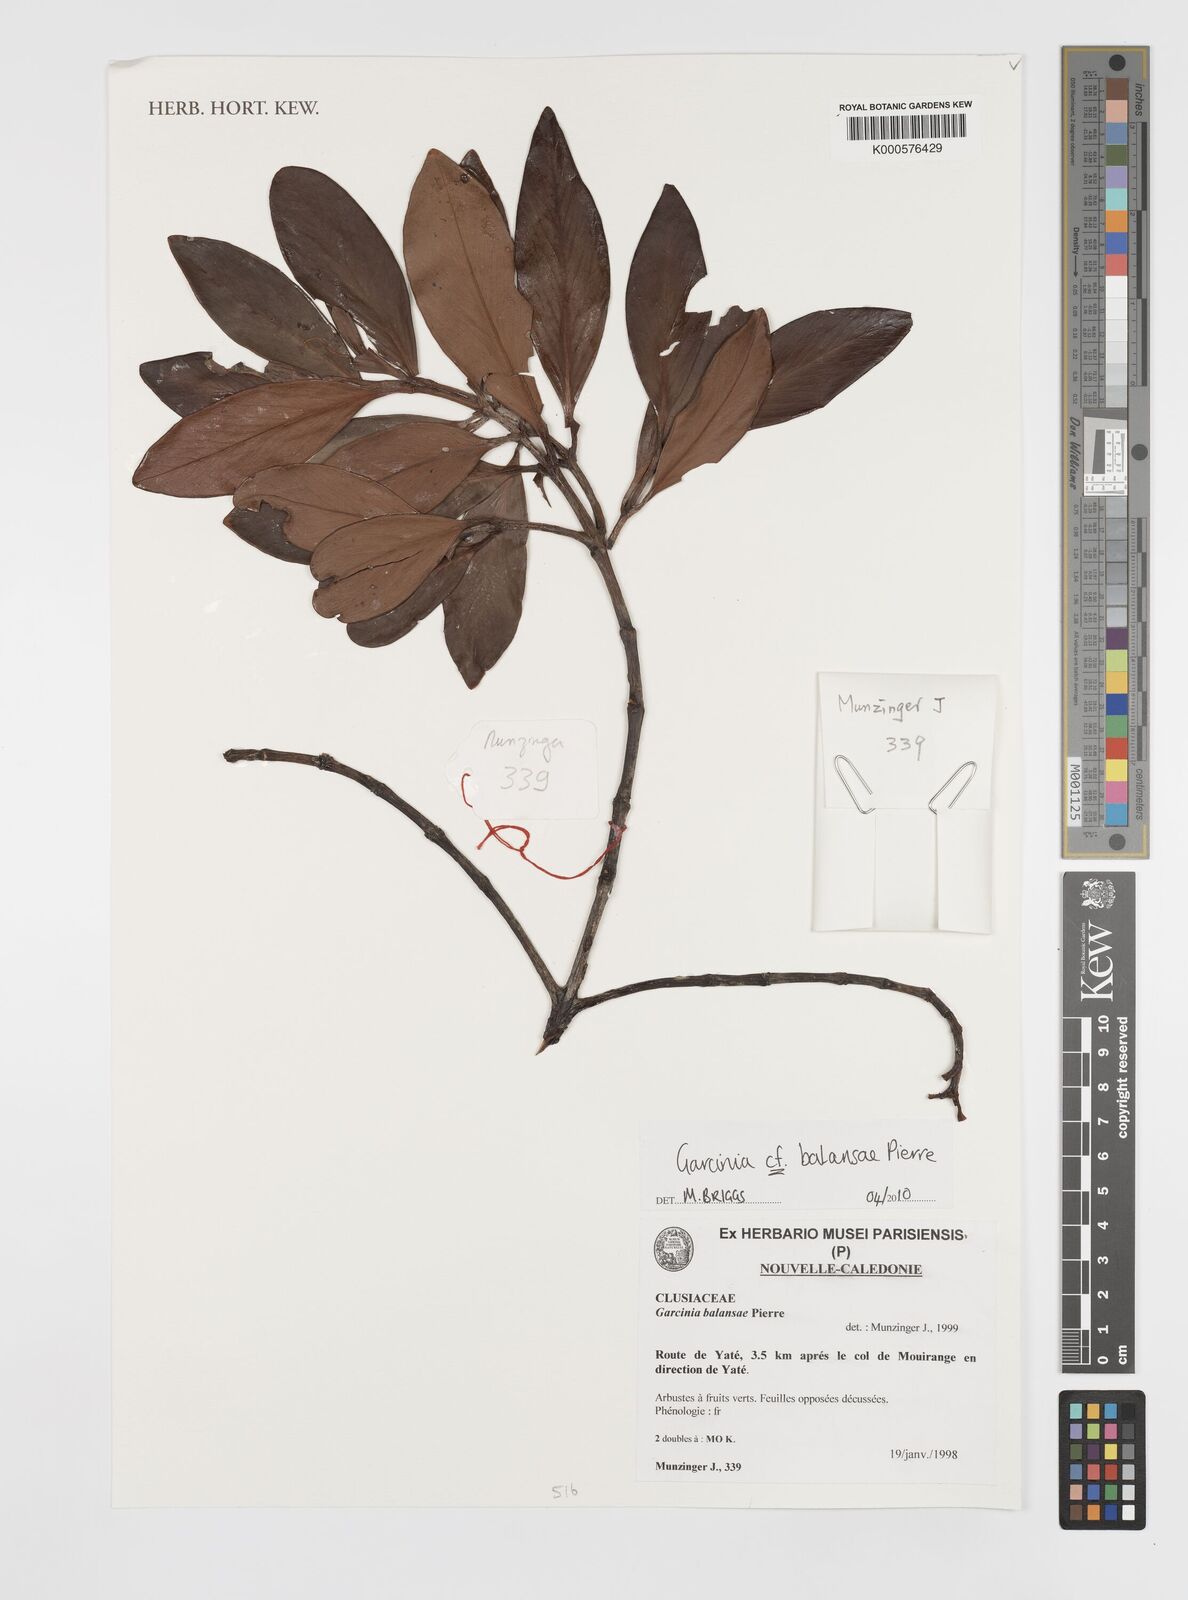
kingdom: Plantae
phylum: Tracheophyta
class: Magnoliopsida
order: Malpighiales
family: Clusiaceae
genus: Garcinia
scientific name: Garcinia balansae
